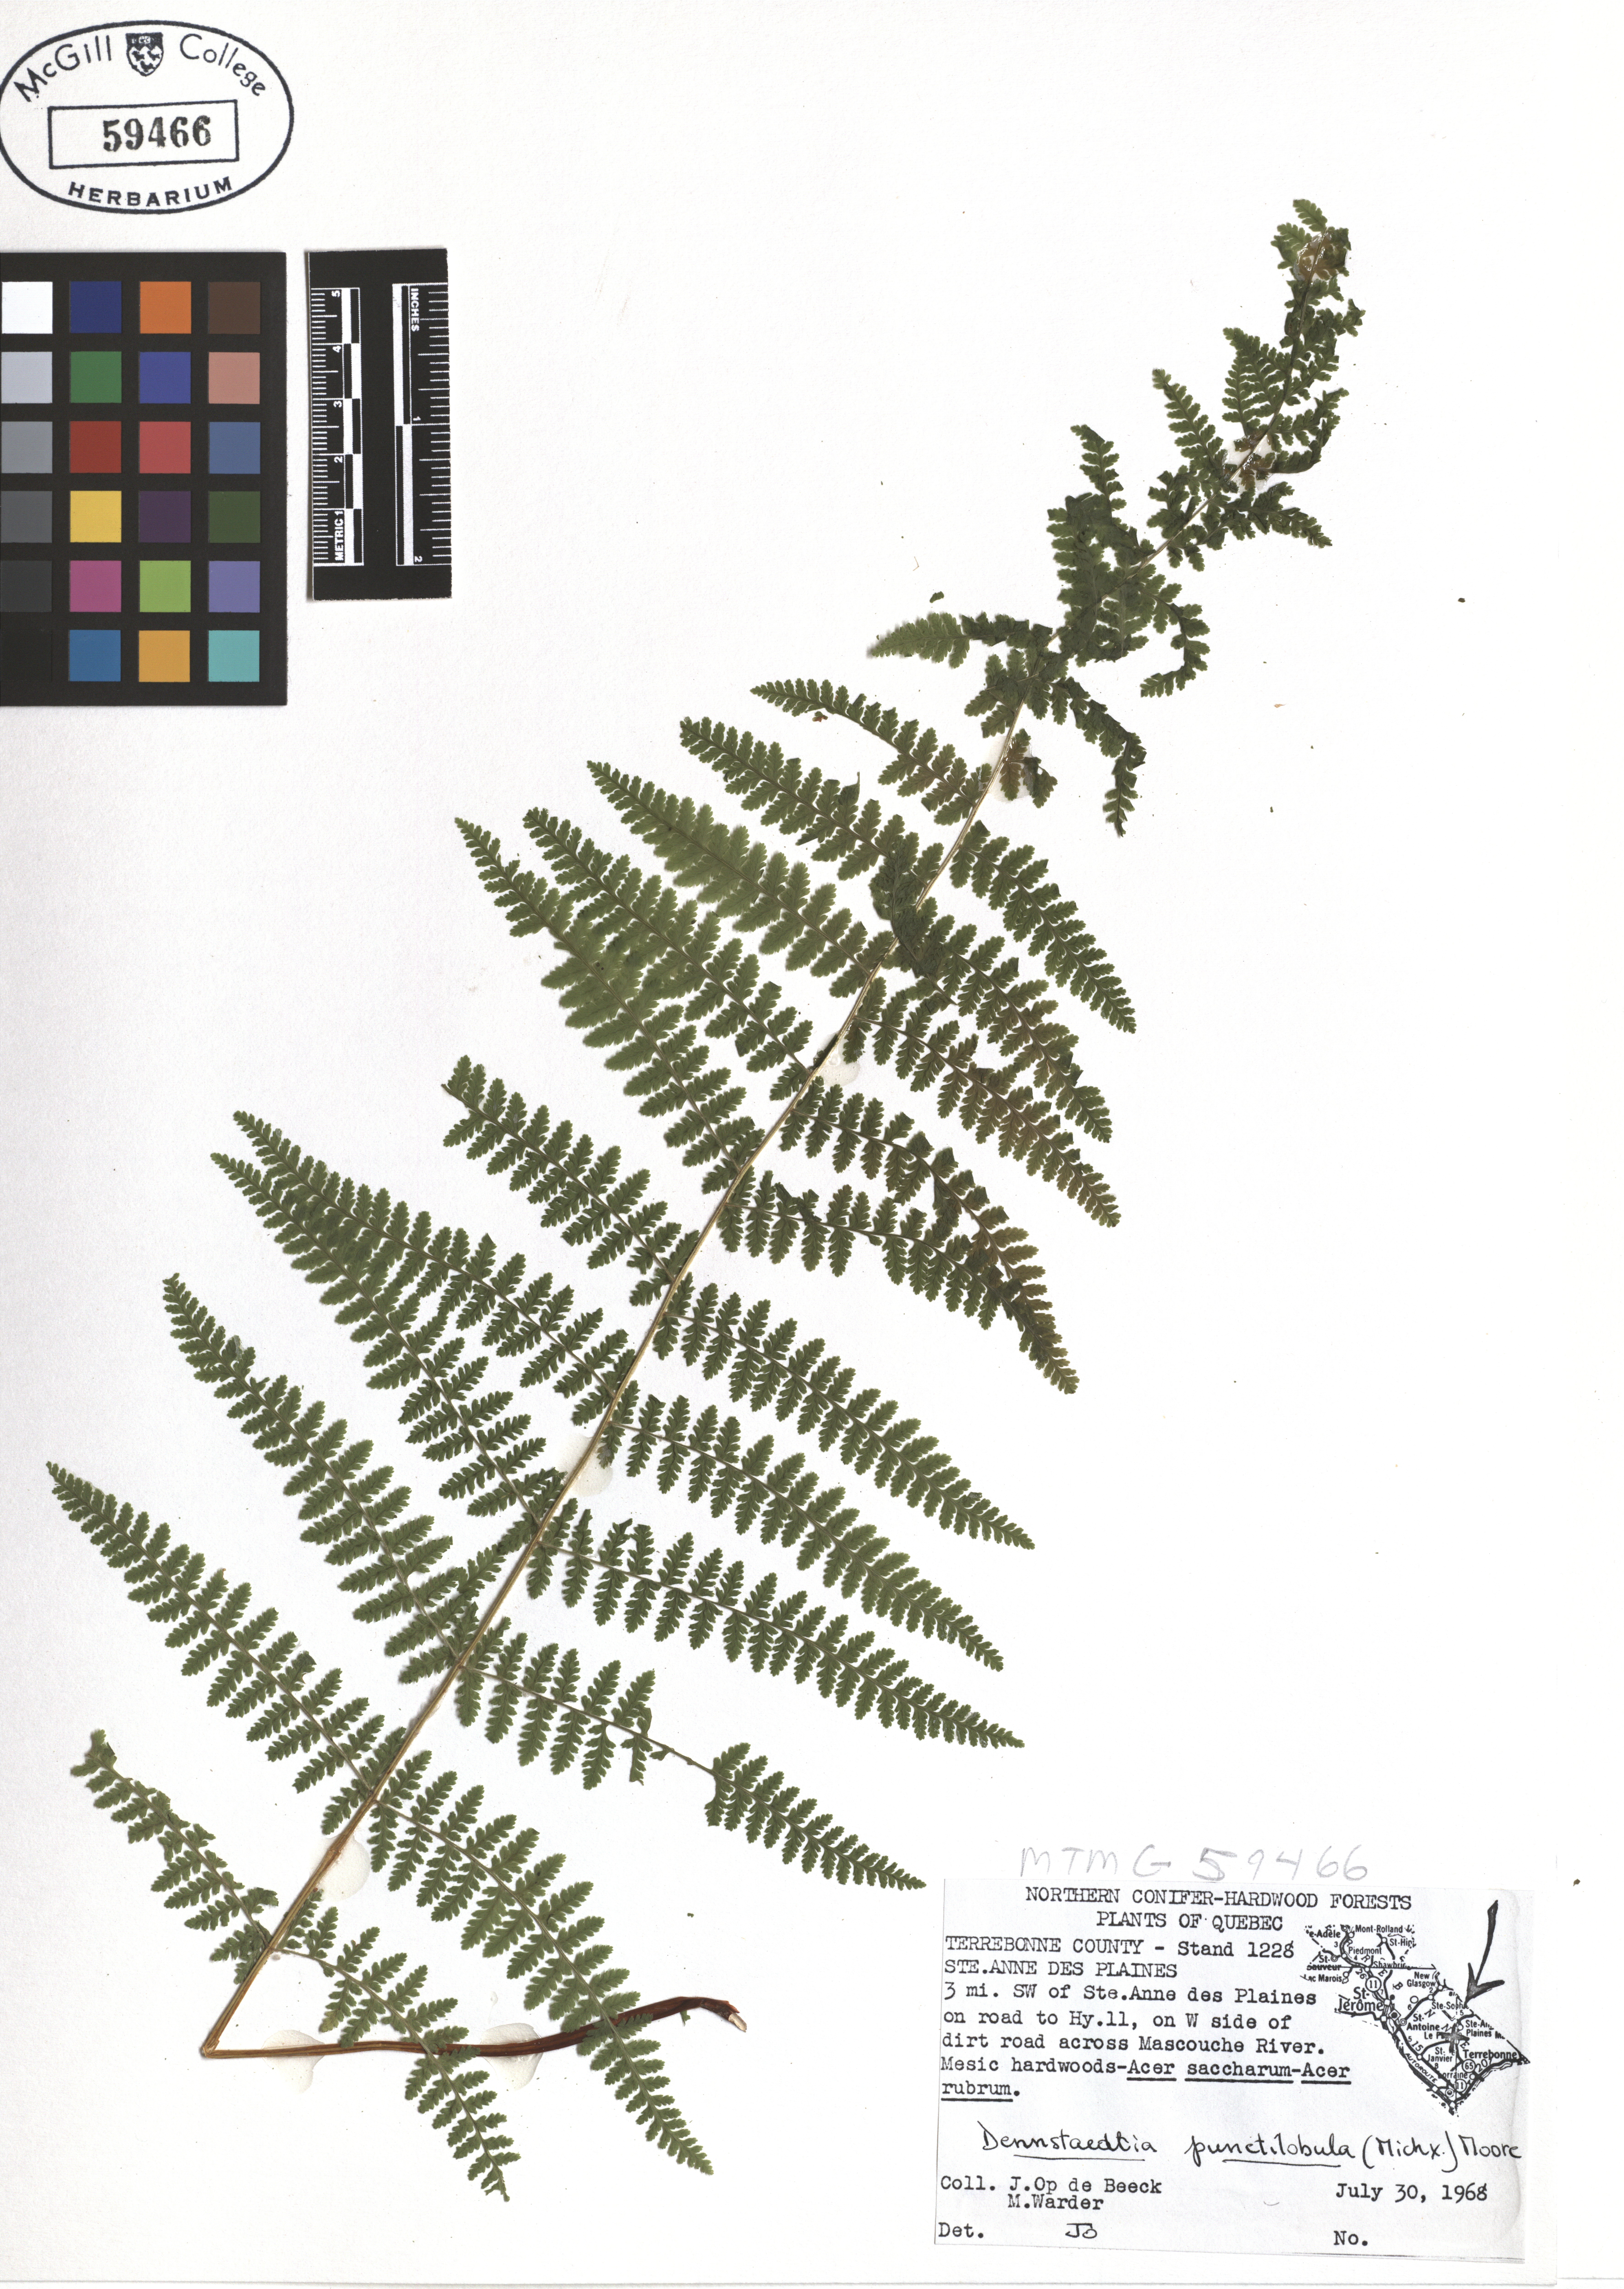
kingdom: Plantae
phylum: Tracheophyta
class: Polypodiopsida
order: Polypodiales
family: Dennstaedtiaceae
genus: Sitobolium
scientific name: Sitobolium punctilobum
